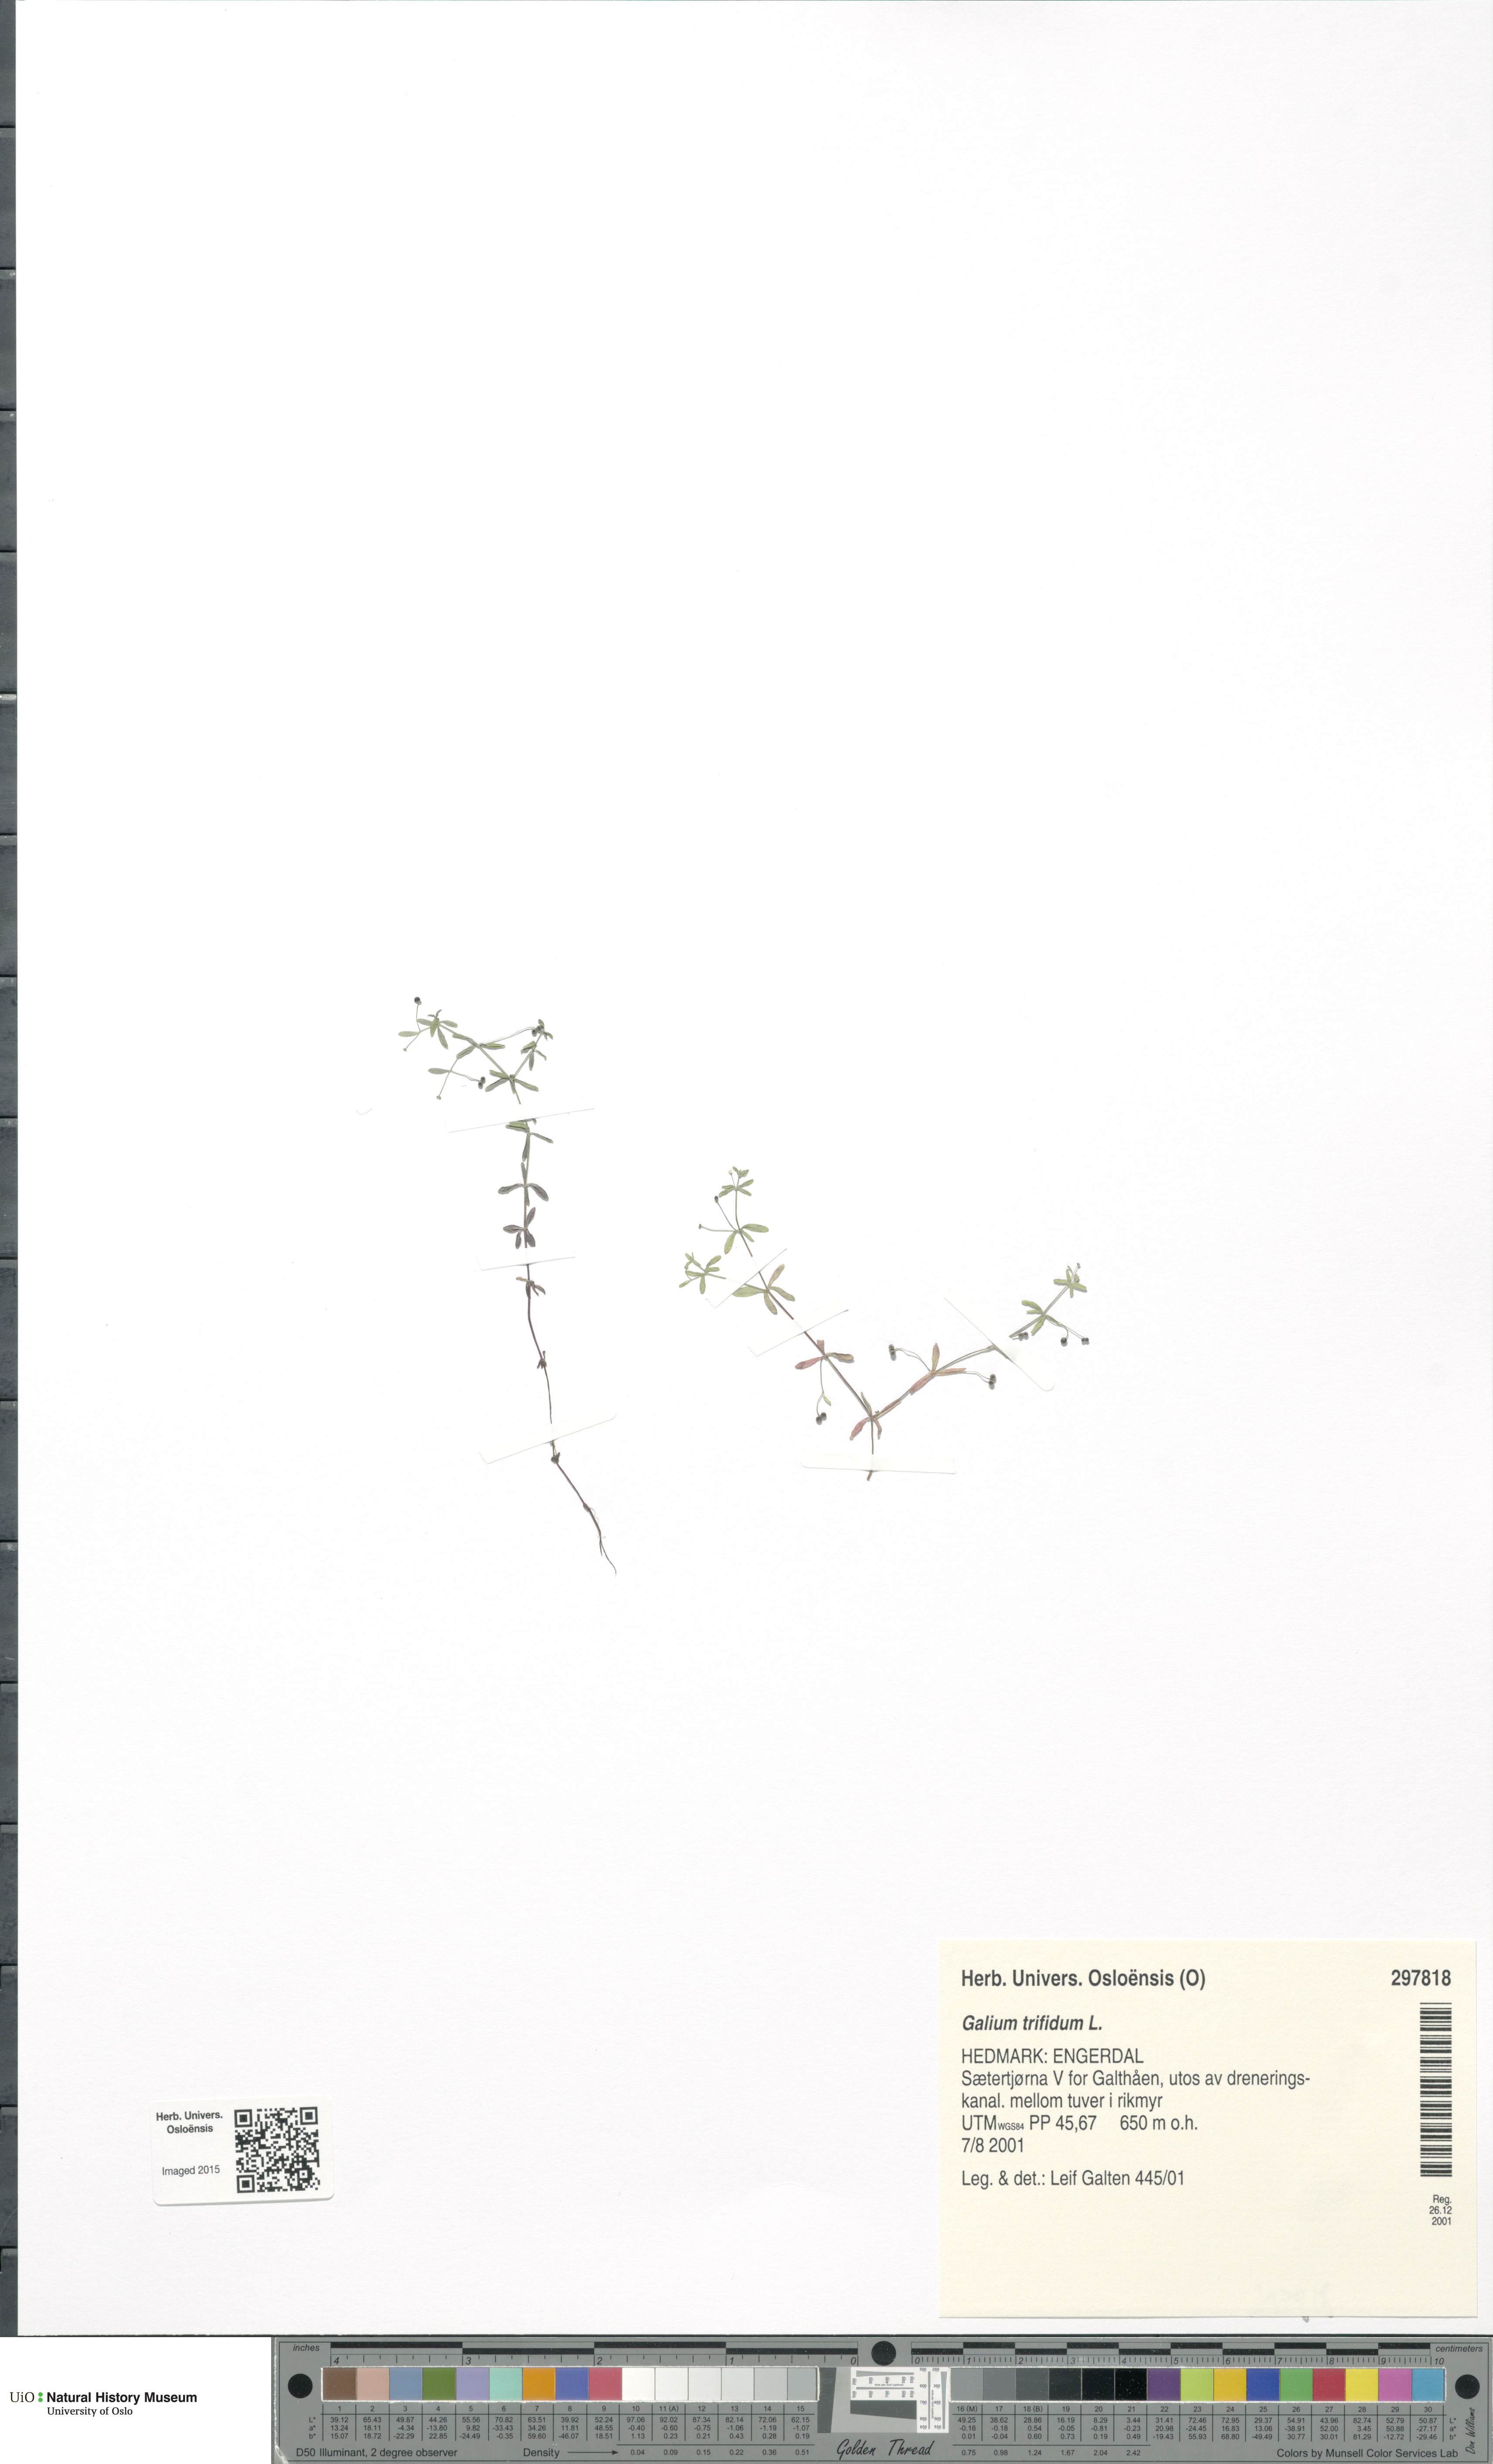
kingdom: Plantae
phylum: Tracheophyta
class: Magnoliopsida
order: Gentianales
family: Rubiaceae
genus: Galium
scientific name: Galium trifidum
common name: Small bedstraw
